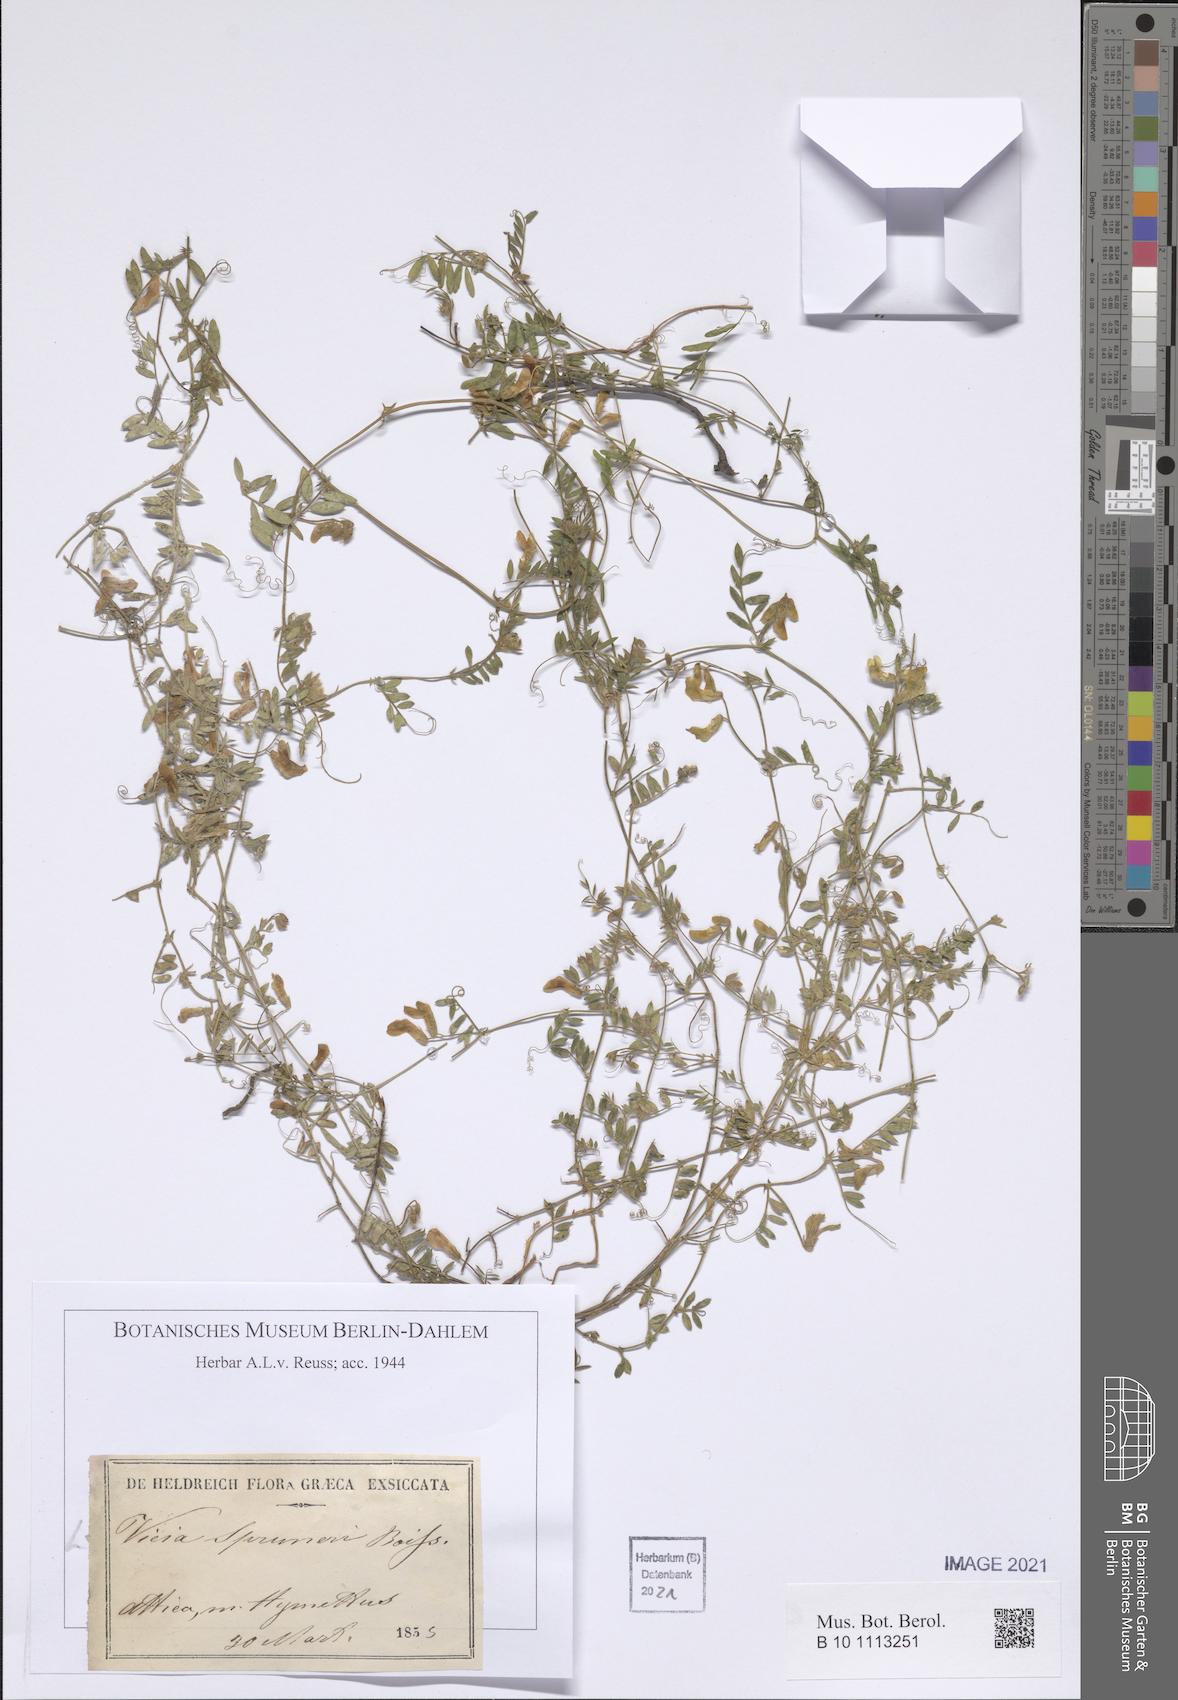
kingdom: Plantae
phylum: Tracheophyta
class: Magnoliopsida
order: Fabales
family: Fabaceae
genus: Vicia
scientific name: Vicia cretica
